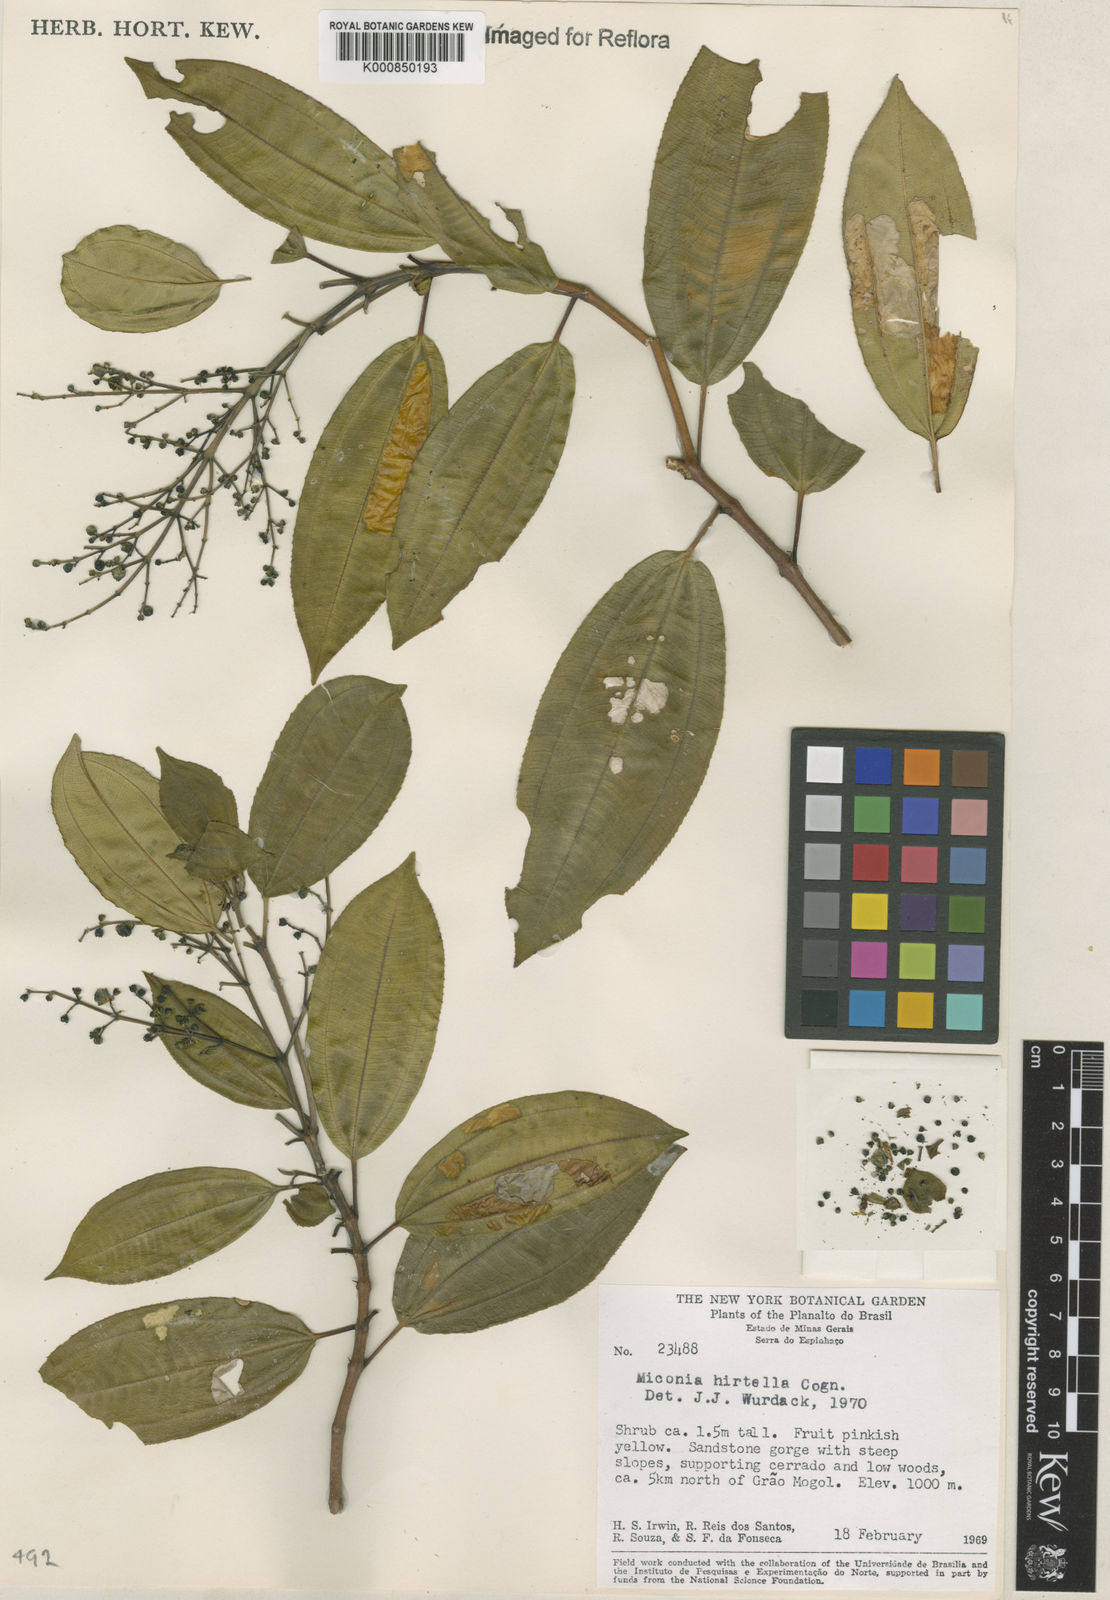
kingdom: Plantae
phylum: Tracheophyta
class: Magnoliopsida
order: Myrtales
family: Melastomataceae
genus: Miconia
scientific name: Miconia hirta
